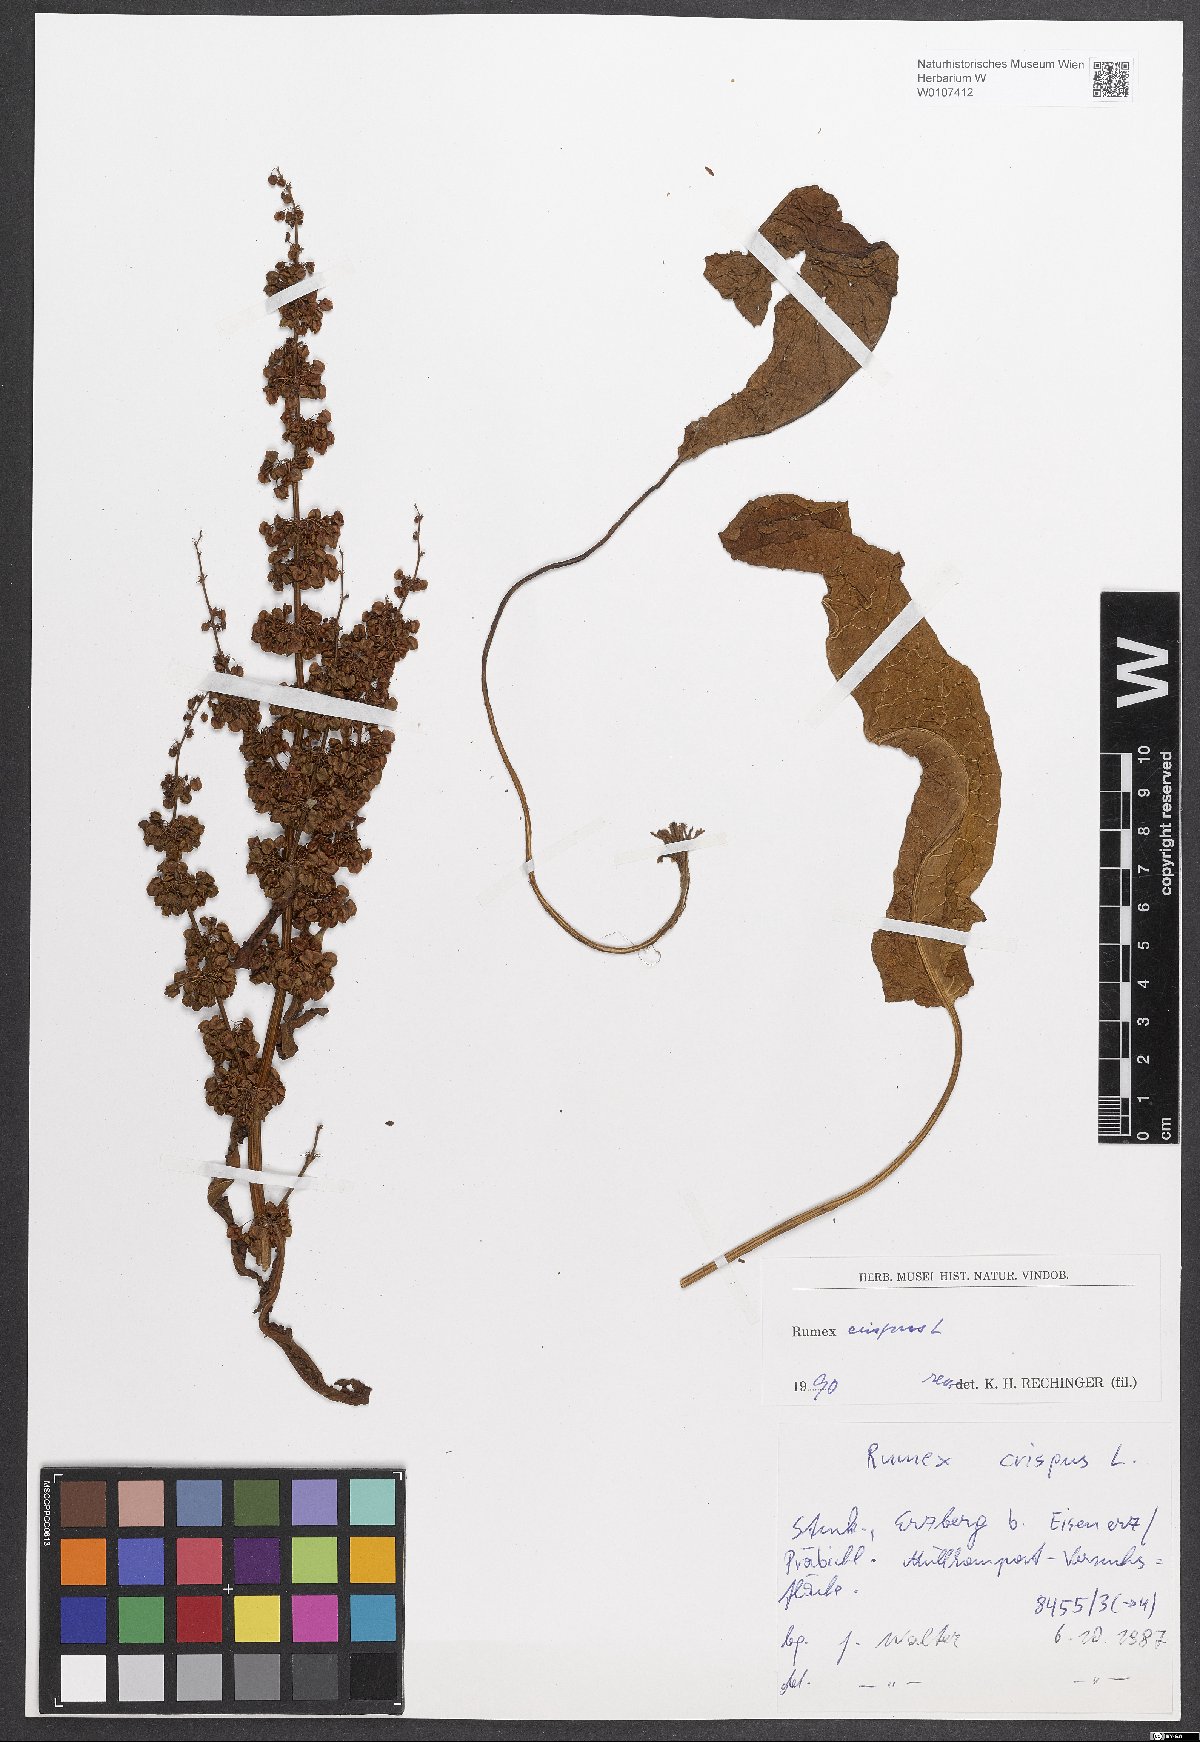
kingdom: Plantae
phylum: Tracheophyta
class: Magnoliopsida
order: Caryophyllales
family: Polygonaceae
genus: Rumex
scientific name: Rumex crispus
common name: Curled dock
